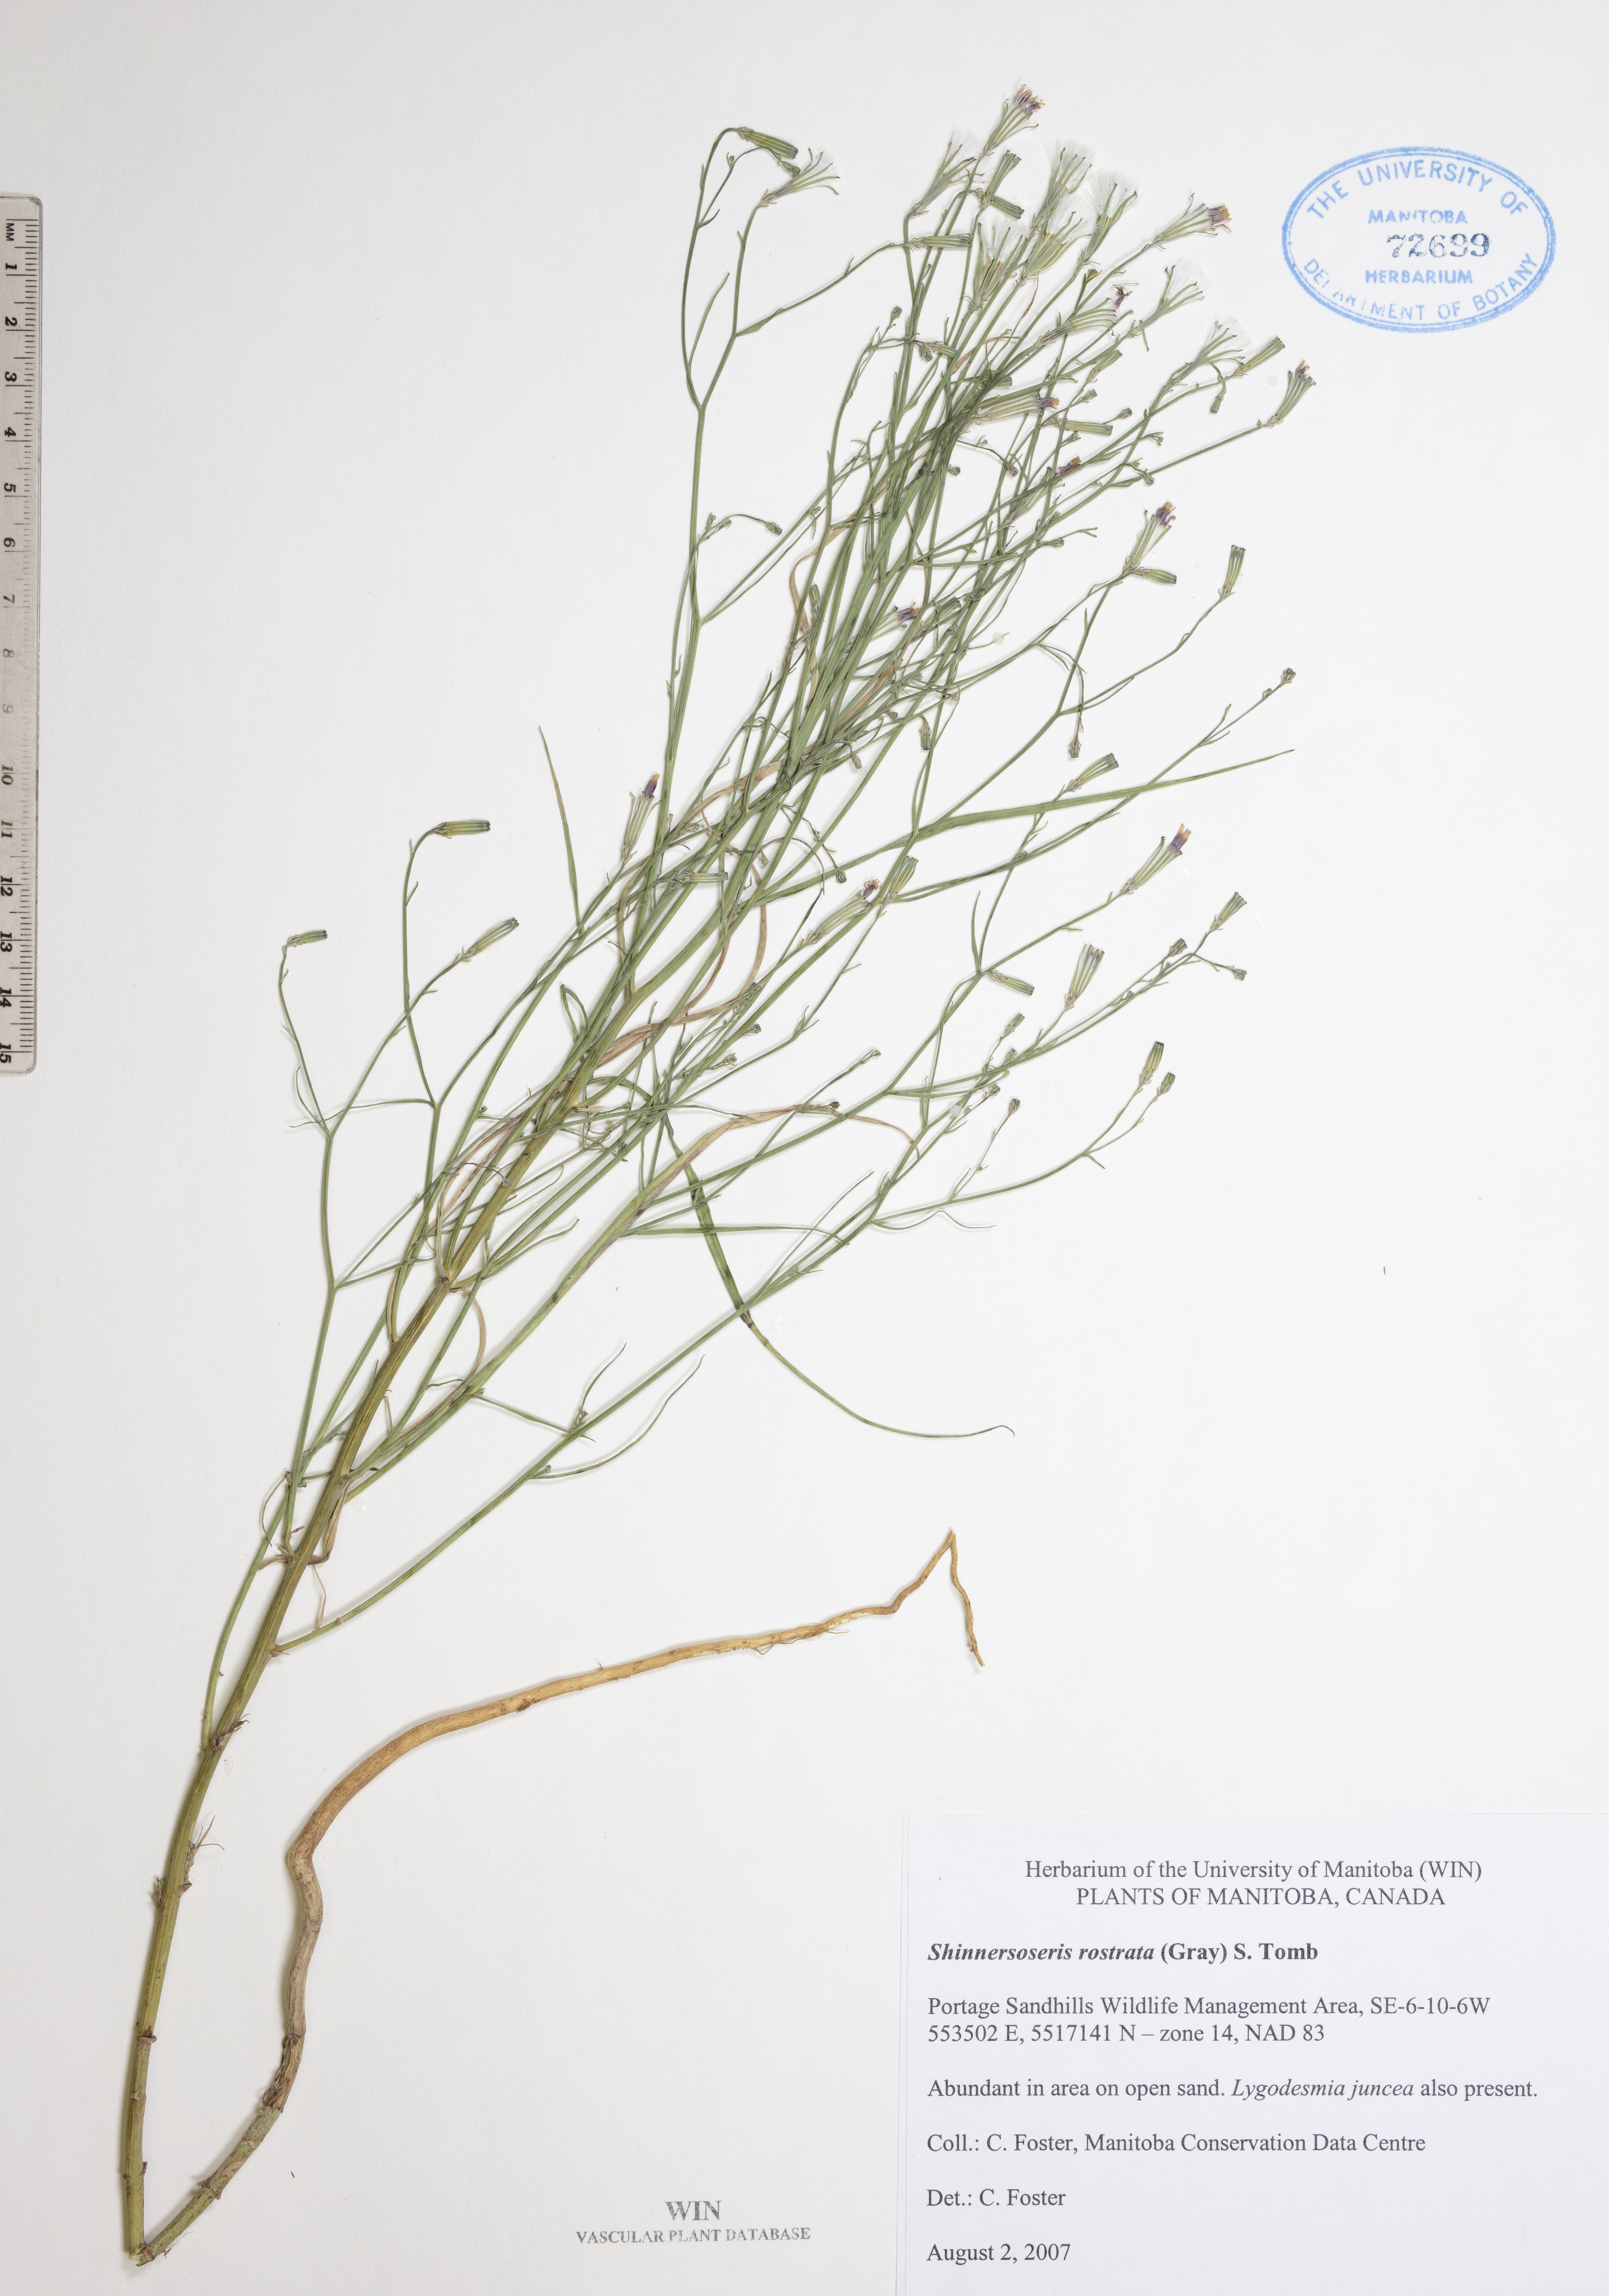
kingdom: Plantae
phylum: Tracheophyta
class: Magnoliopsida
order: Asterales
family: Asteraceae
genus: Shinnersoseris
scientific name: Shinnersoseris rostrata
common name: Annual skeleton-weed
